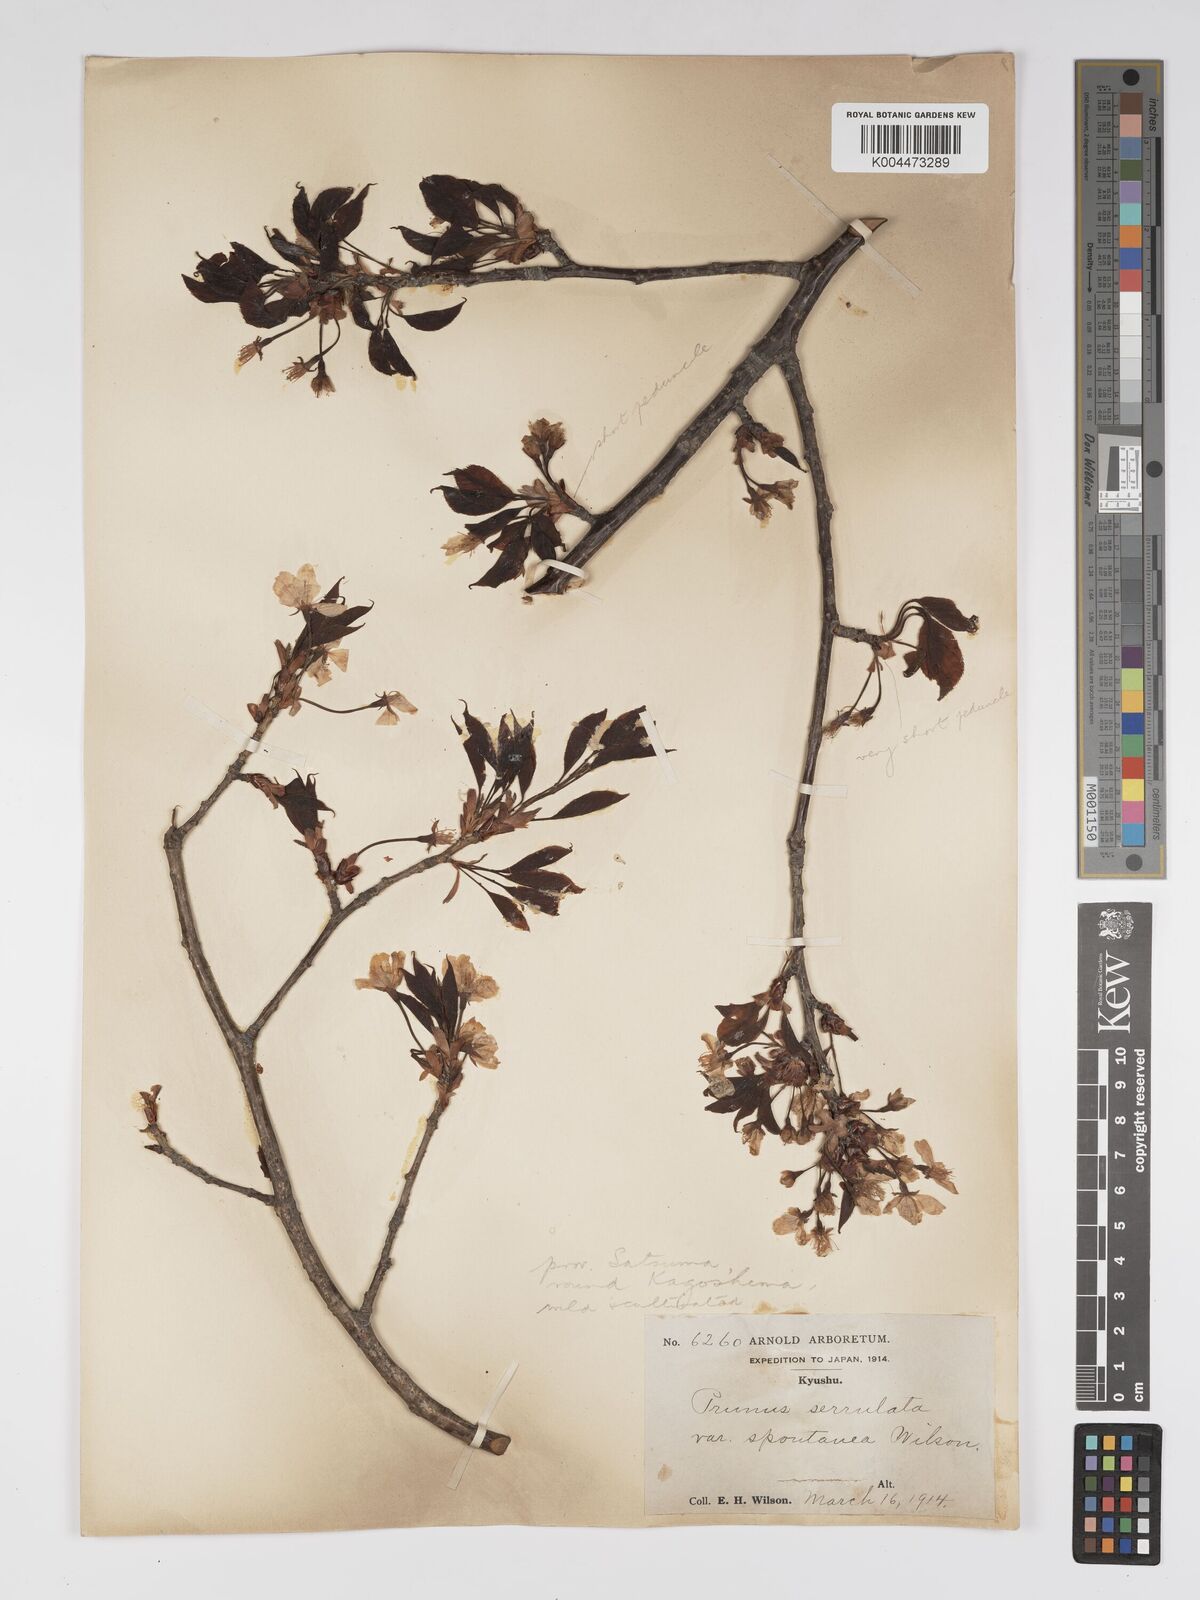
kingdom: Plantae
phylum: Tracheophyta
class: Magnoliopsida
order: Rosales
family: Rosaceae
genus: Prunus
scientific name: Prunus serrulata
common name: Japanese cherry
